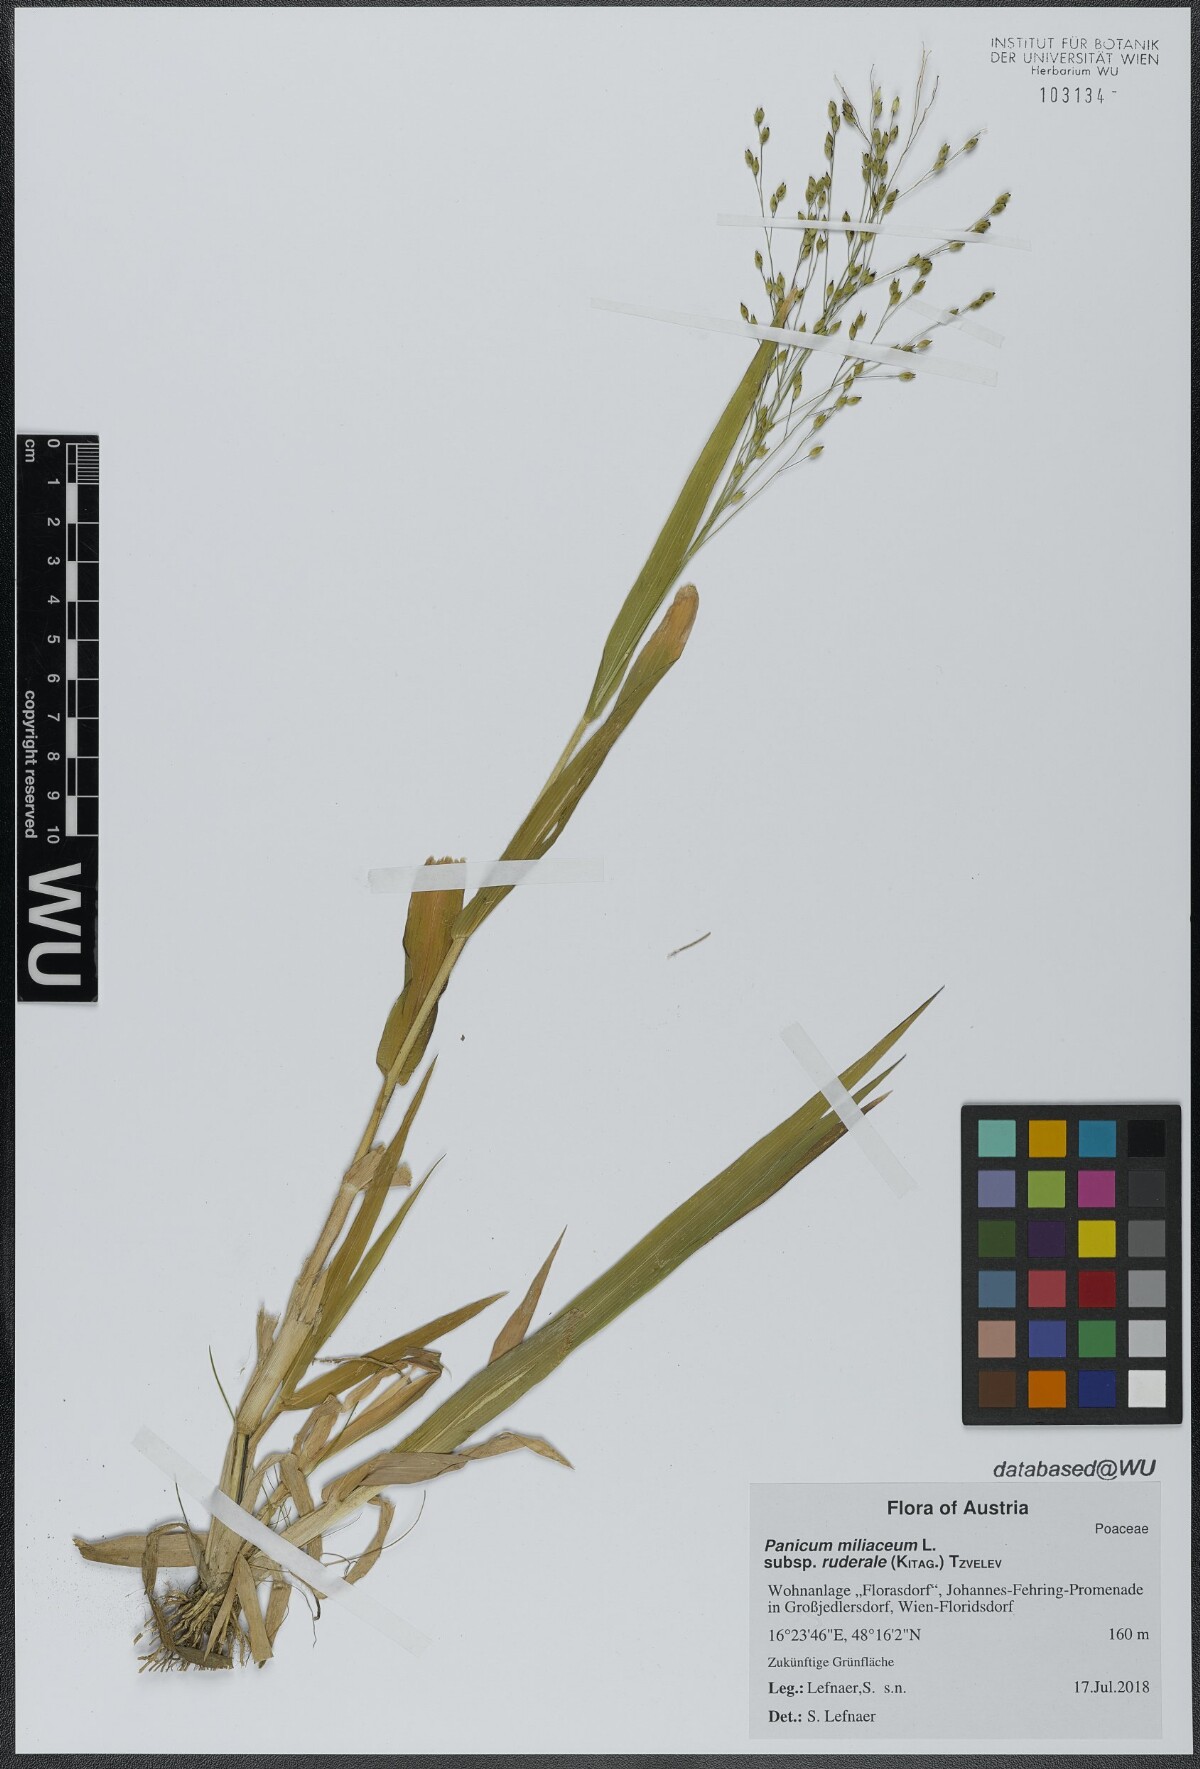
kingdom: Plantae
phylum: Tracheophyta
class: Liliopsida
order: Poales
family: Poaceae
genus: Panicum
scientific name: Panicum miliaceum
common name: Common millet
